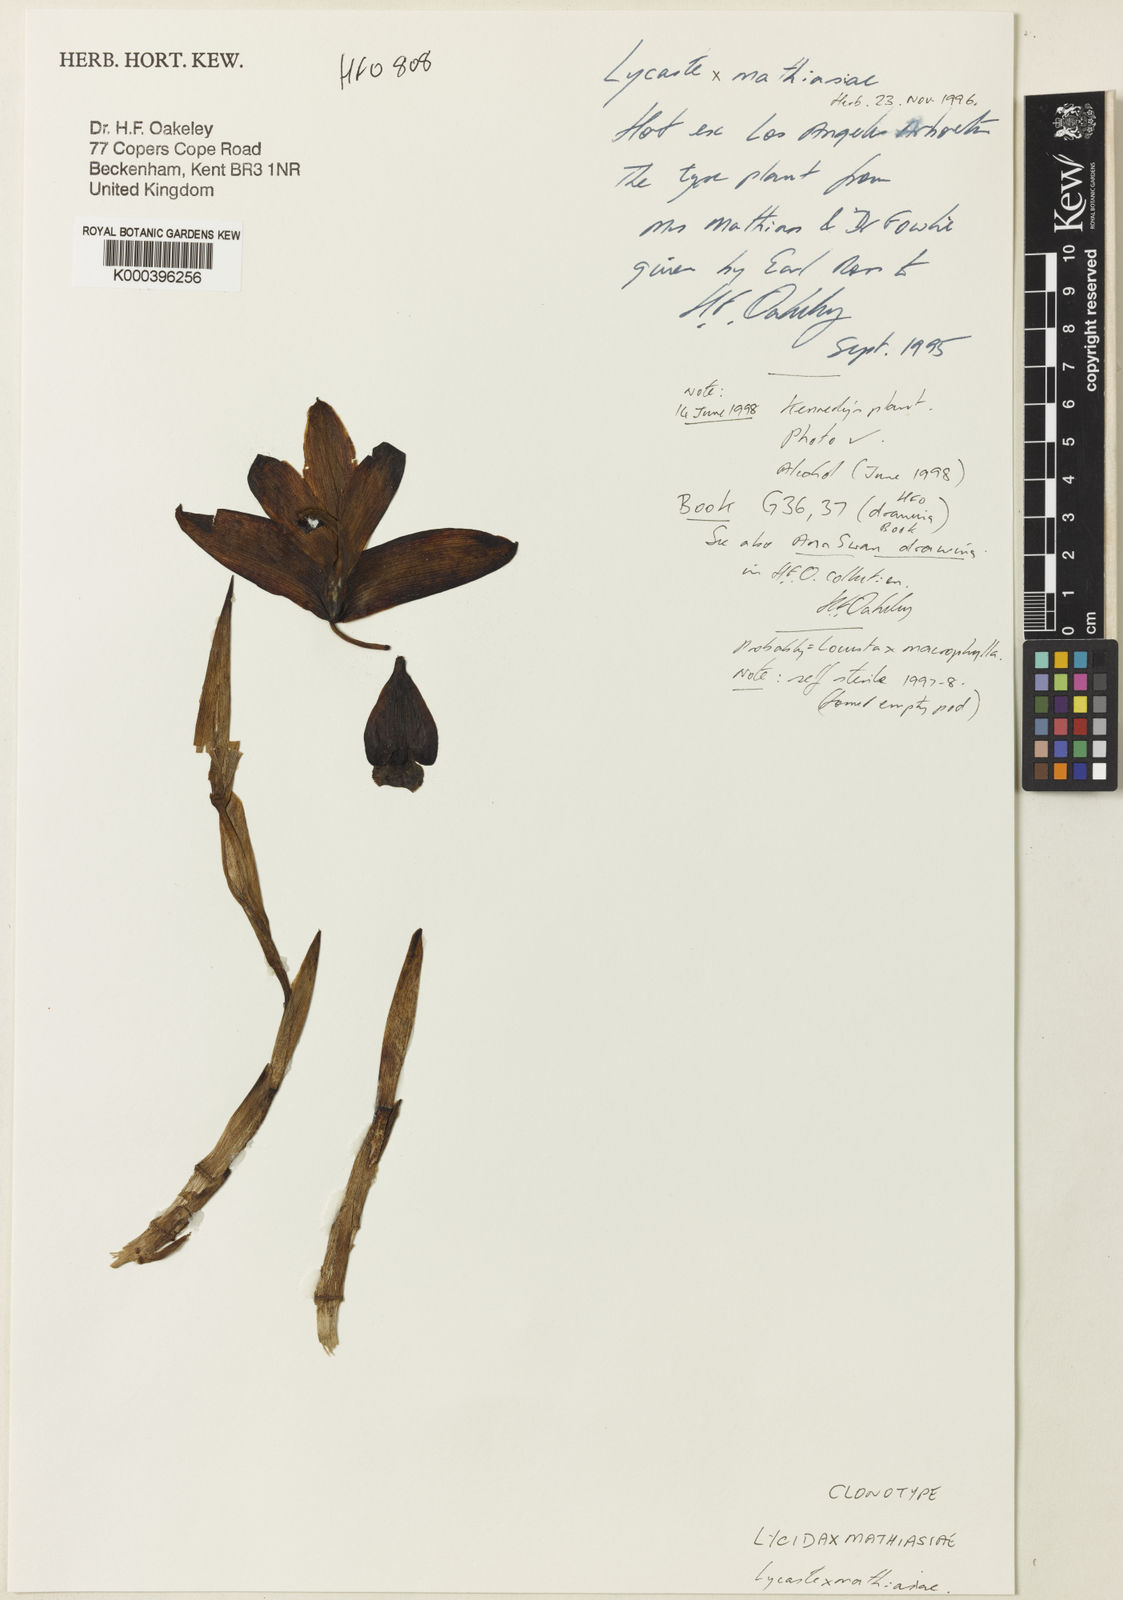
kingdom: Plantae
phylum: Tracheophyta
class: Liliopsida
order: Asparagales
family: Orchidaceae
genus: Lycida
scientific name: Lycida mathiasiae
